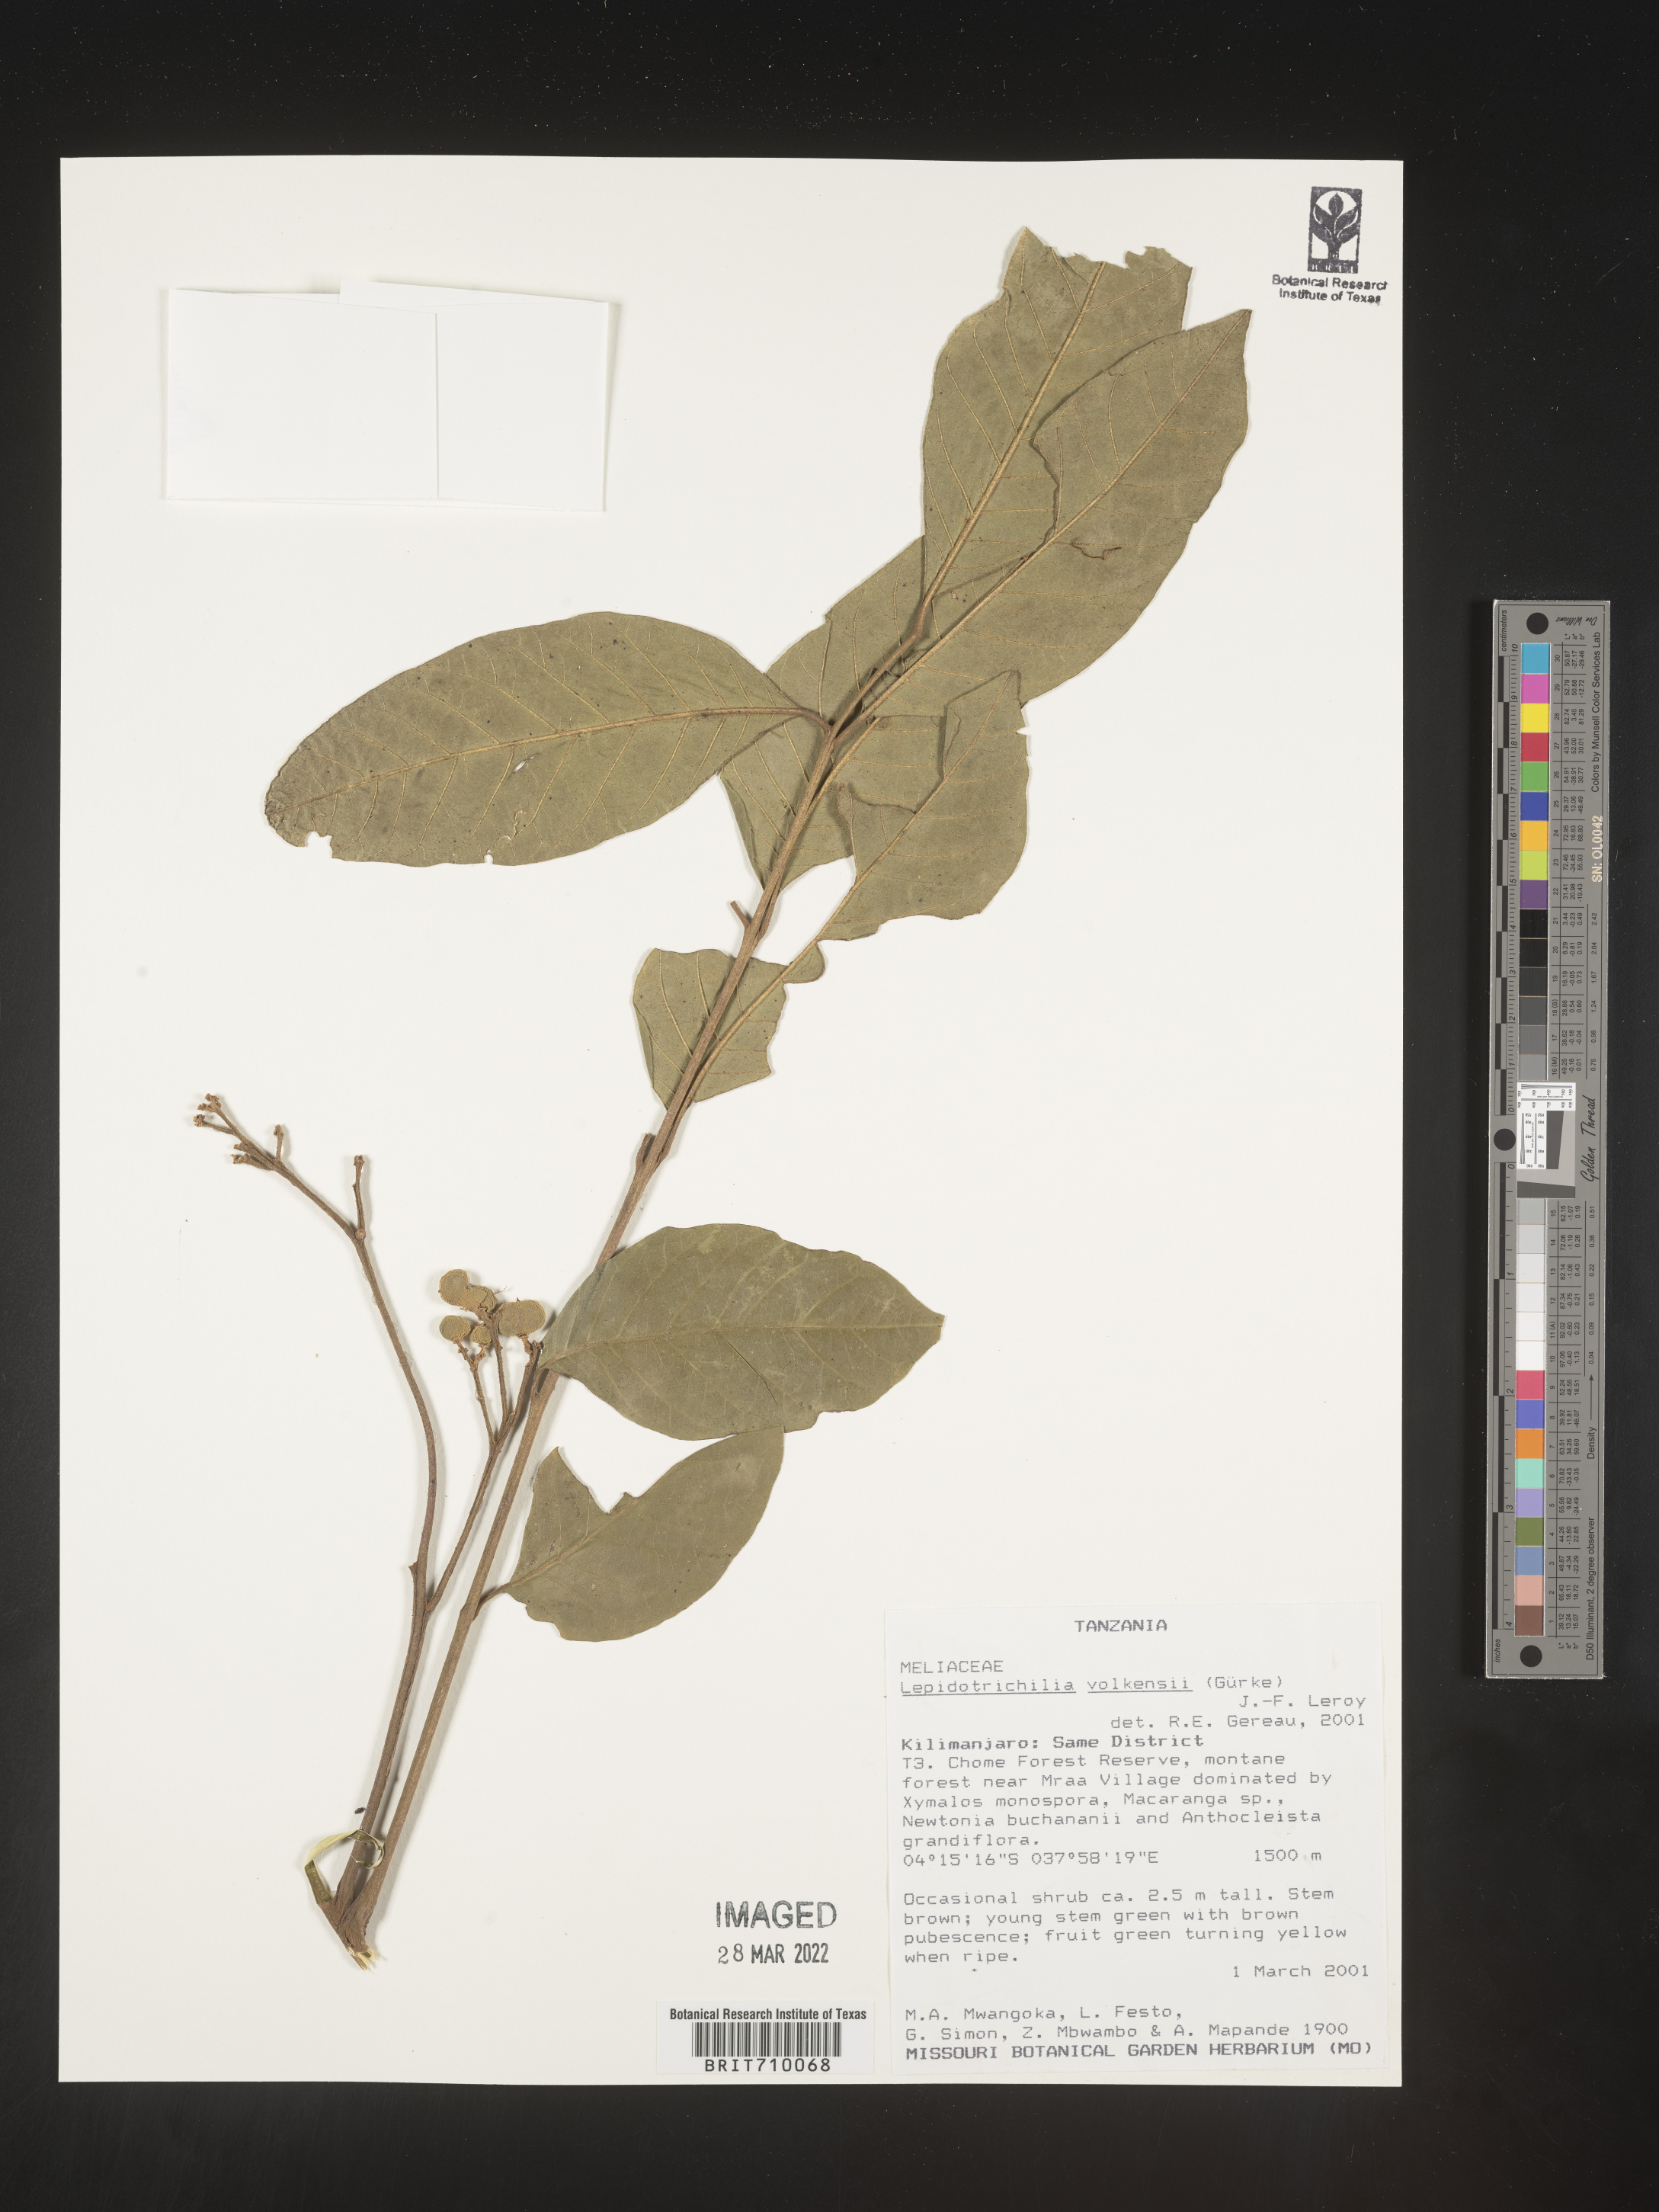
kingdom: Plantae
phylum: Tracheophyta
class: Magnoliopsida
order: Sapindales
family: Meliaceae
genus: Lepidotrichilia
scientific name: Lepidotrichilia
